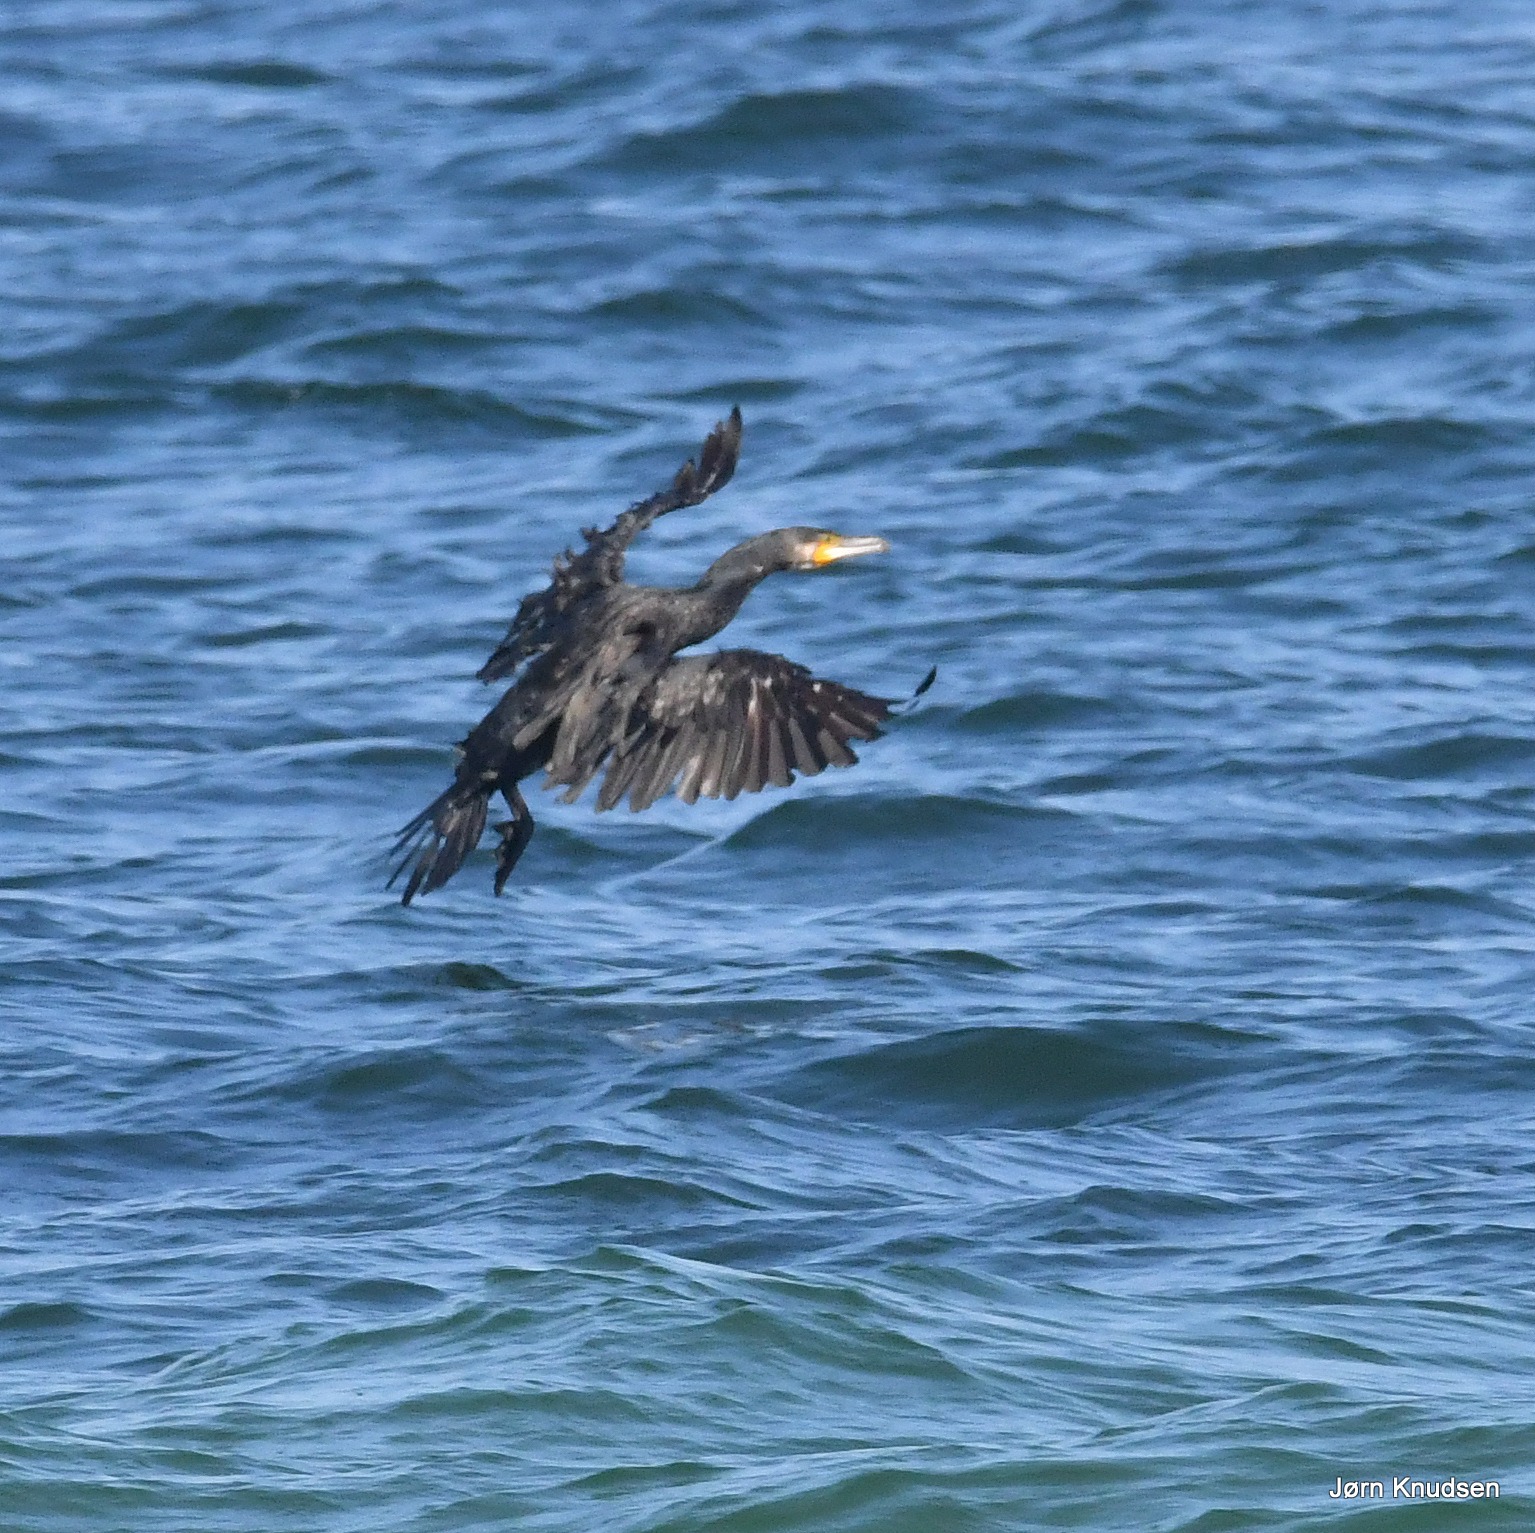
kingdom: Animalia
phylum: Chordata
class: Aves
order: Suliformes
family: Phalacrocoracidae
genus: Phalacrocorax
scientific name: Phalacrocorax carbo
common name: Skarv
